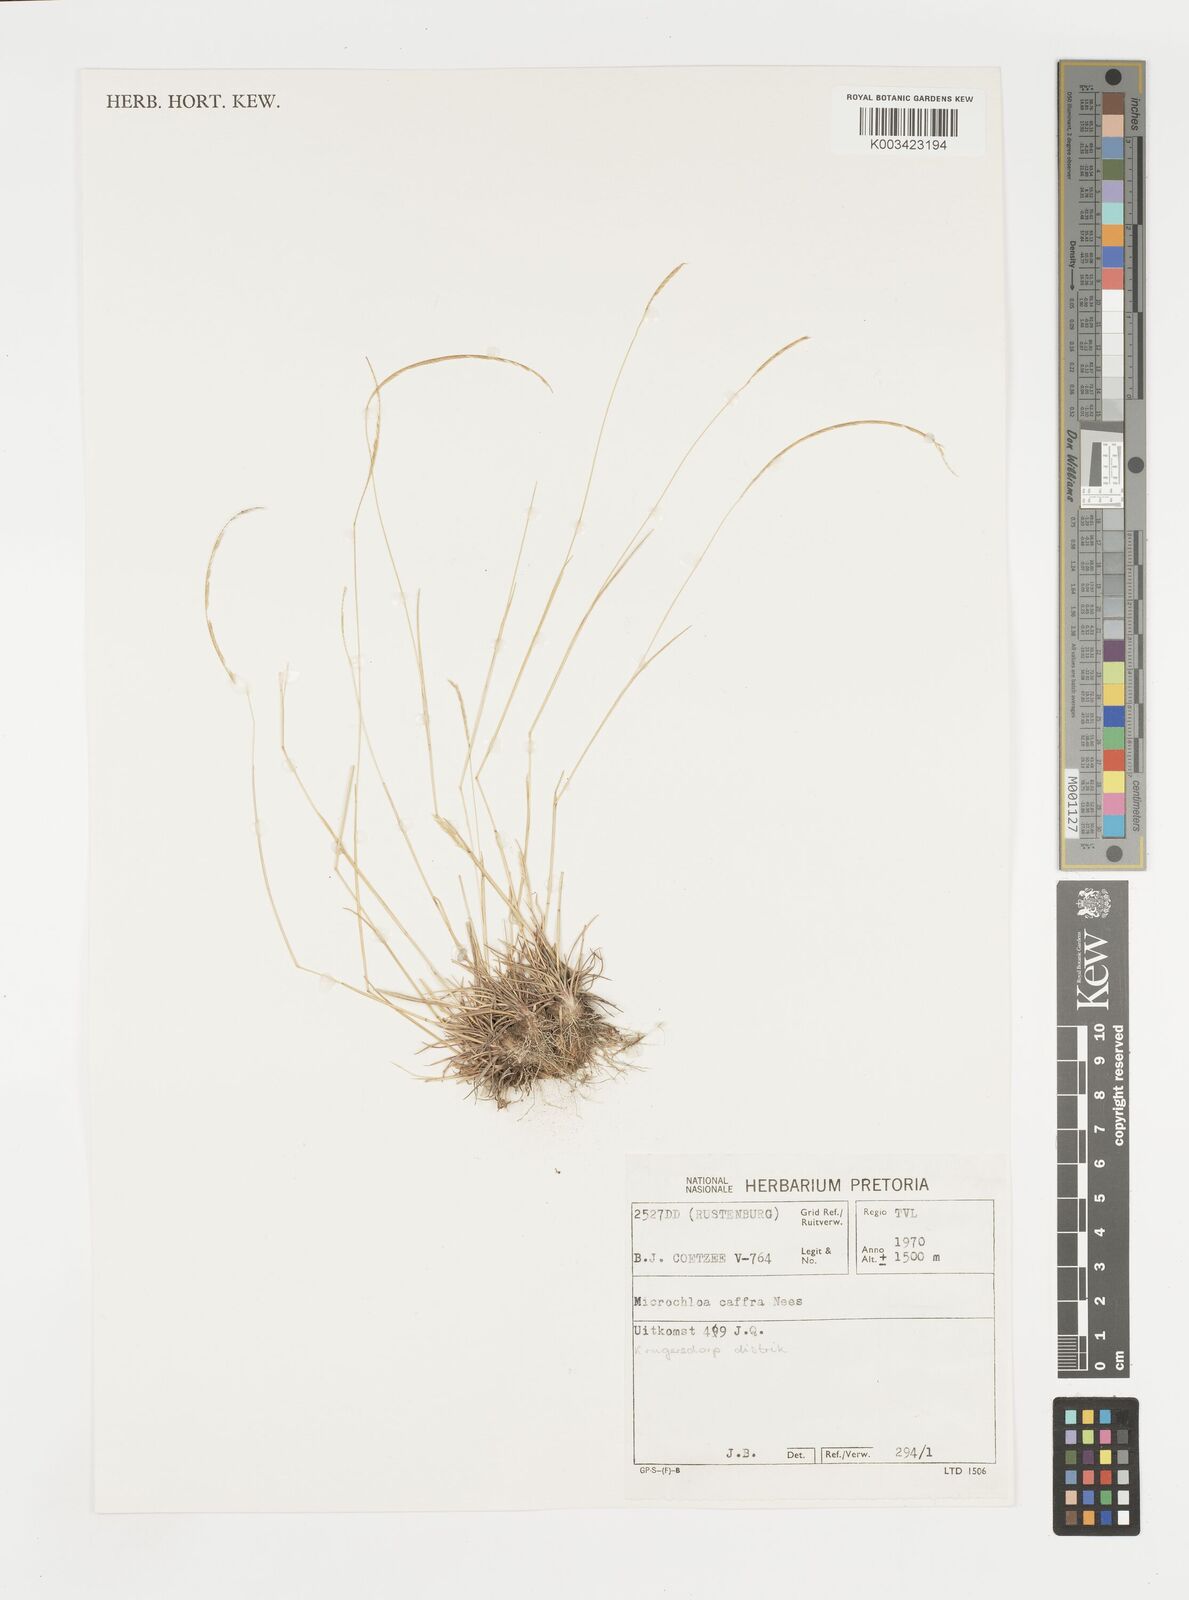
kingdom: Plantae
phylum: Tracheophyta
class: Liliopsida
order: Poales
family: Poaceae
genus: Microchloa
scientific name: Microchloa caffra
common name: Pincushion grass
